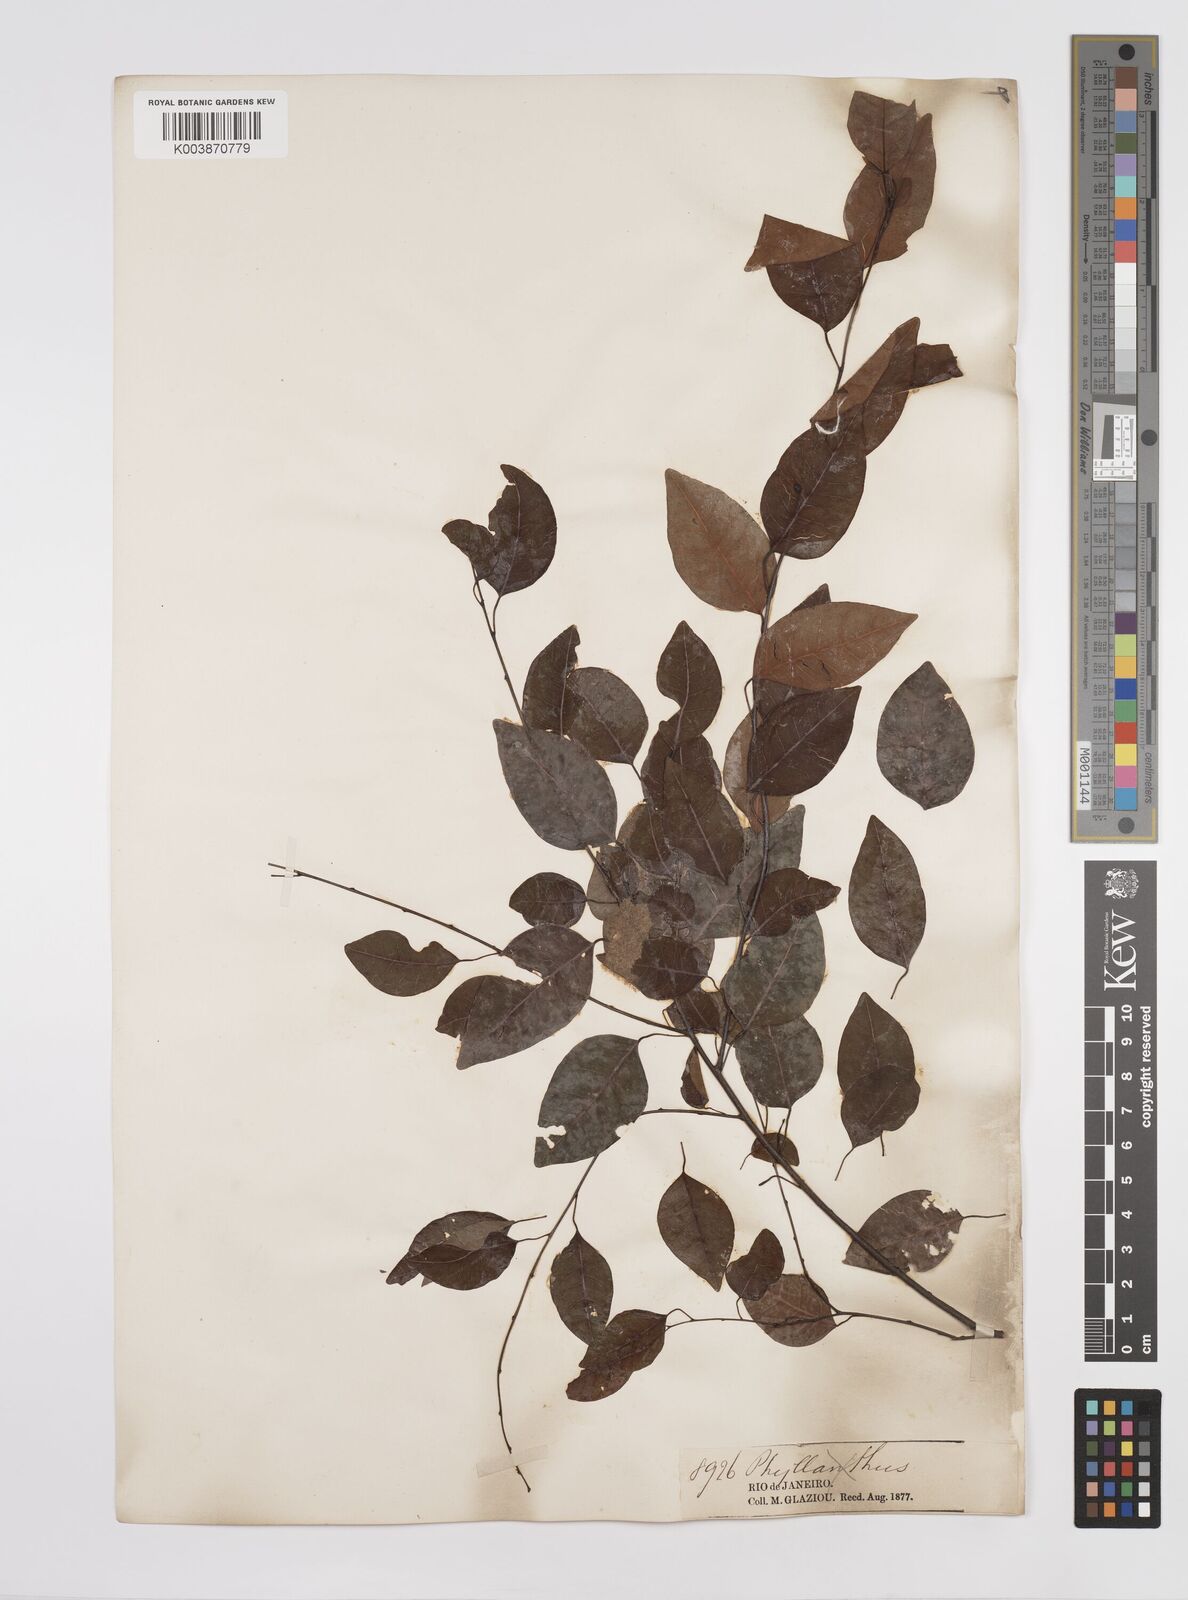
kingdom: Plantae
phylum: Tracheophyta
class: Magnoliopsida
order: Malpighiales
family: Euphorbiaceae
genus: Maprounea
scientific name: Maprounea guianensis
